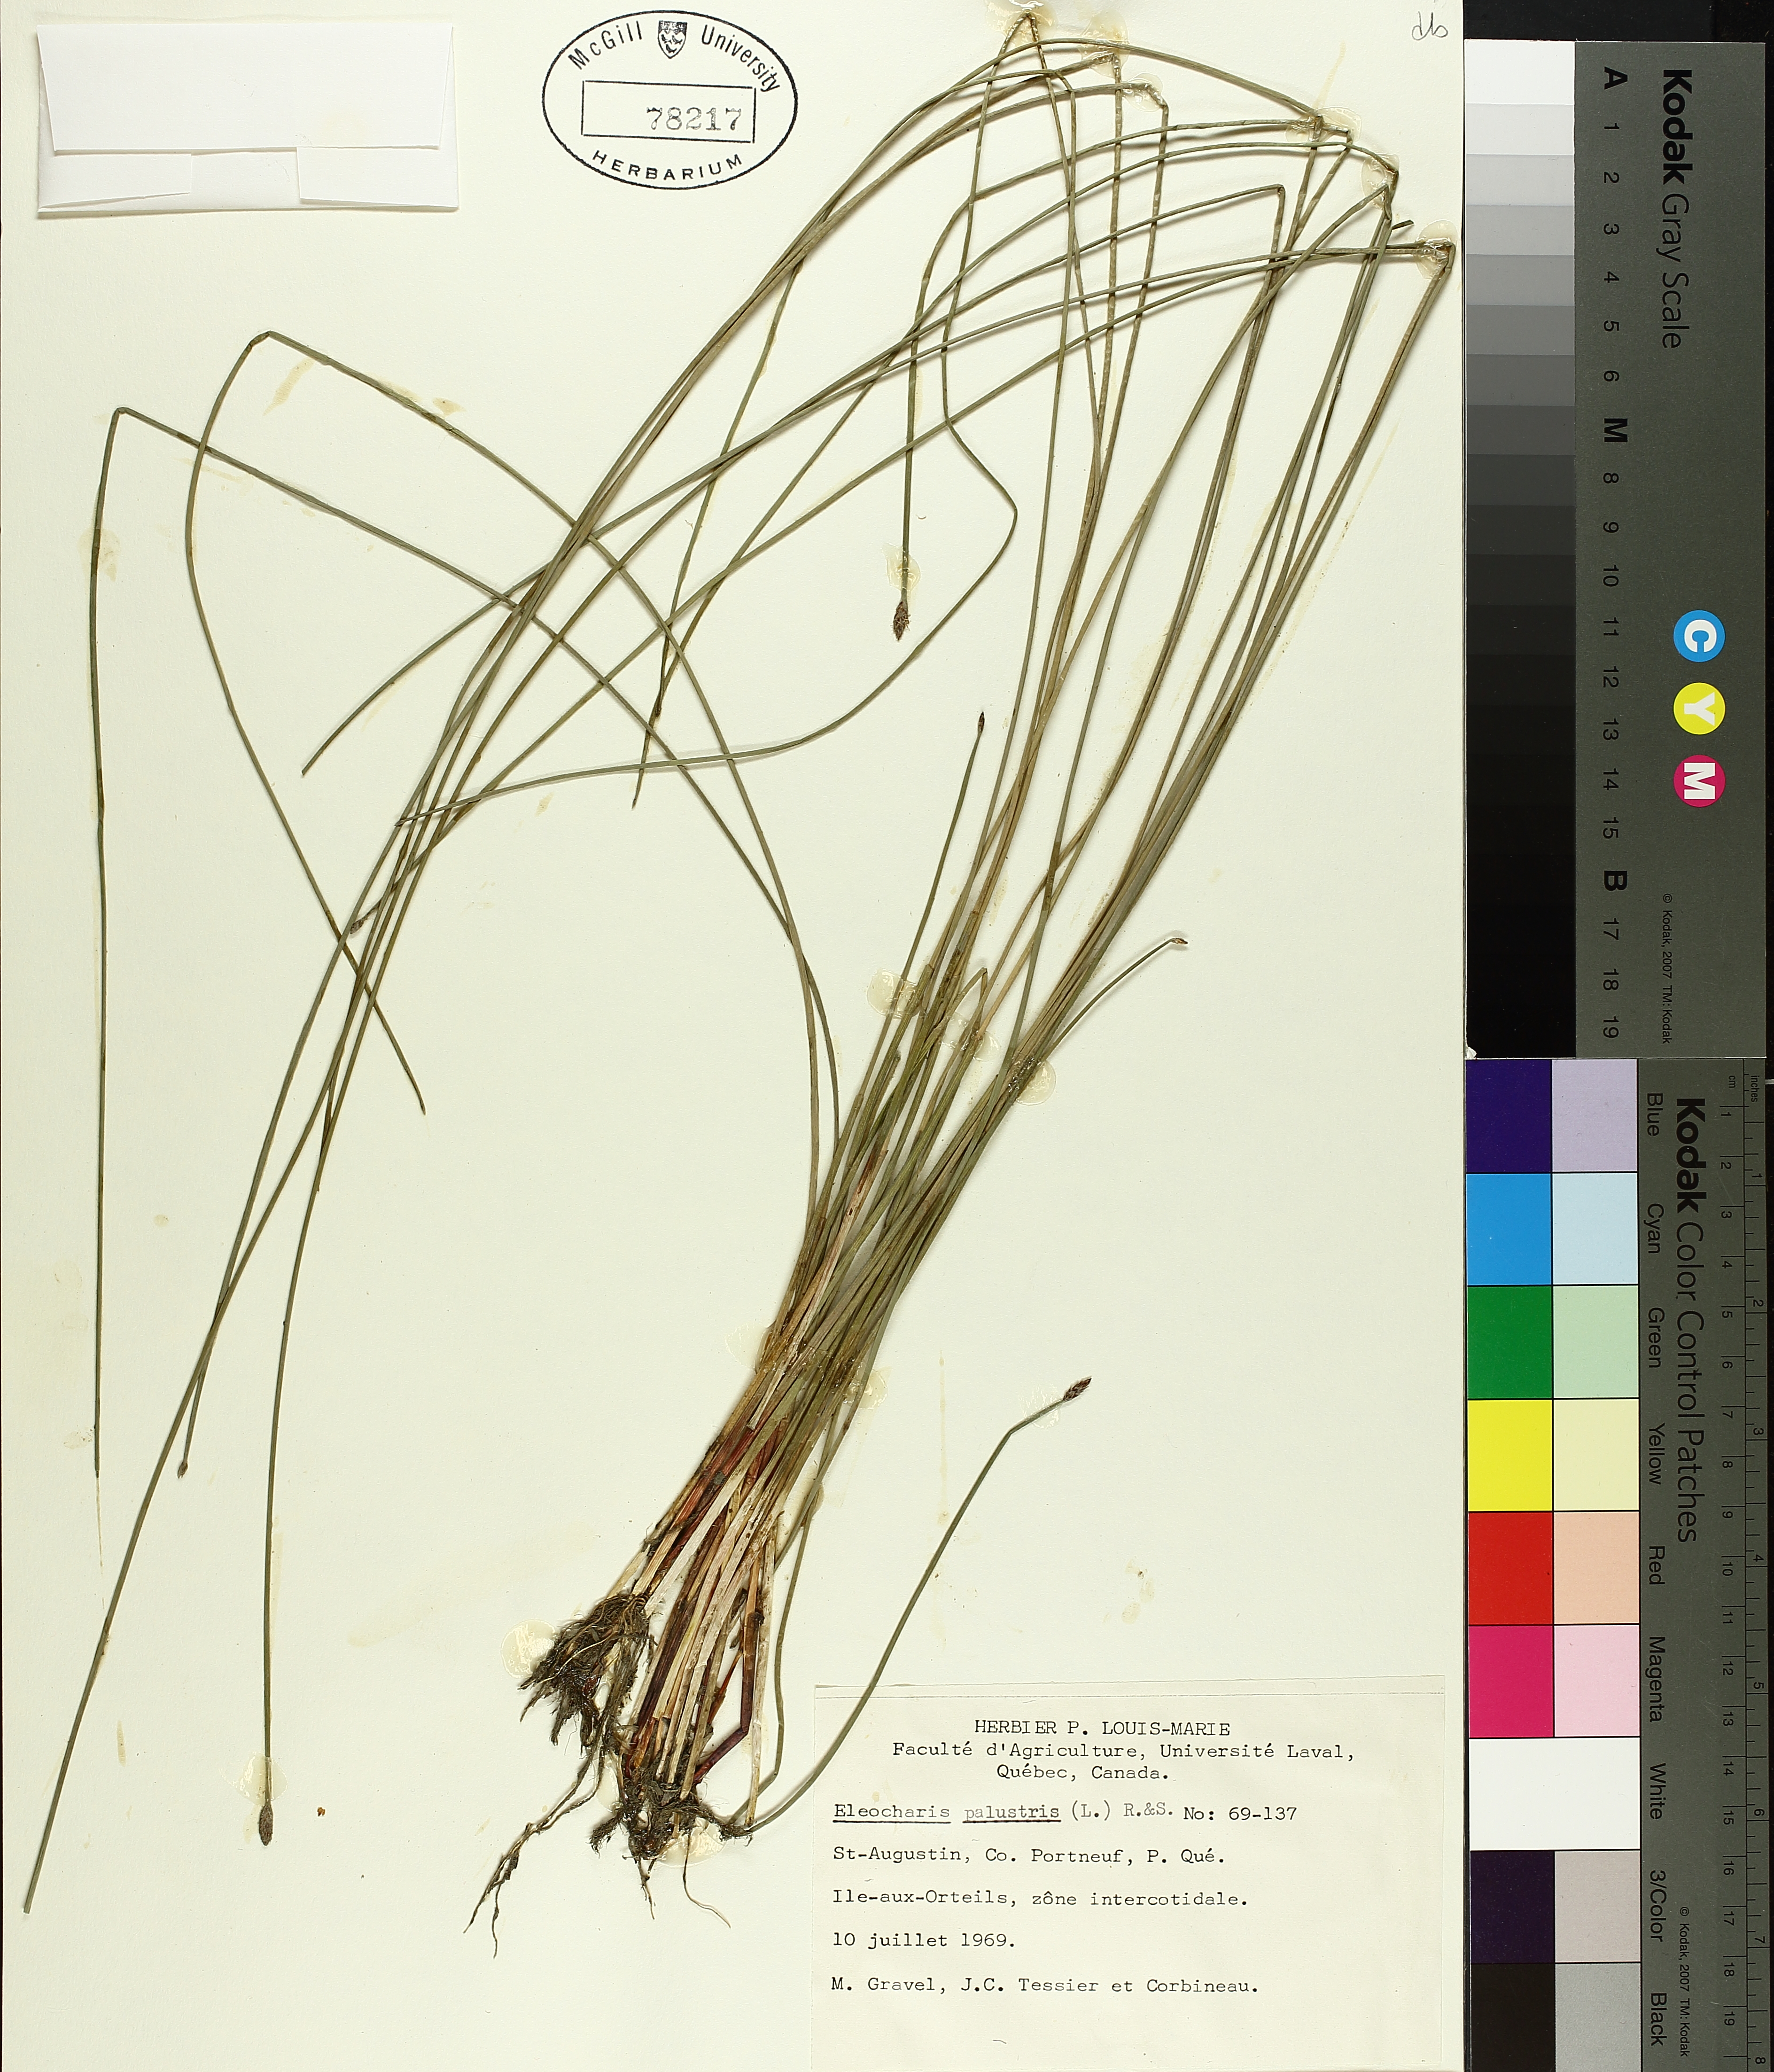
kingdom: Plantae
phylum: Tracheophyta
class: Liliopsida
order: Poales
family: Cyperaceae
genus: Eleocharis
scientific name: Eleocharis palustris
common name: Common spike-rush
